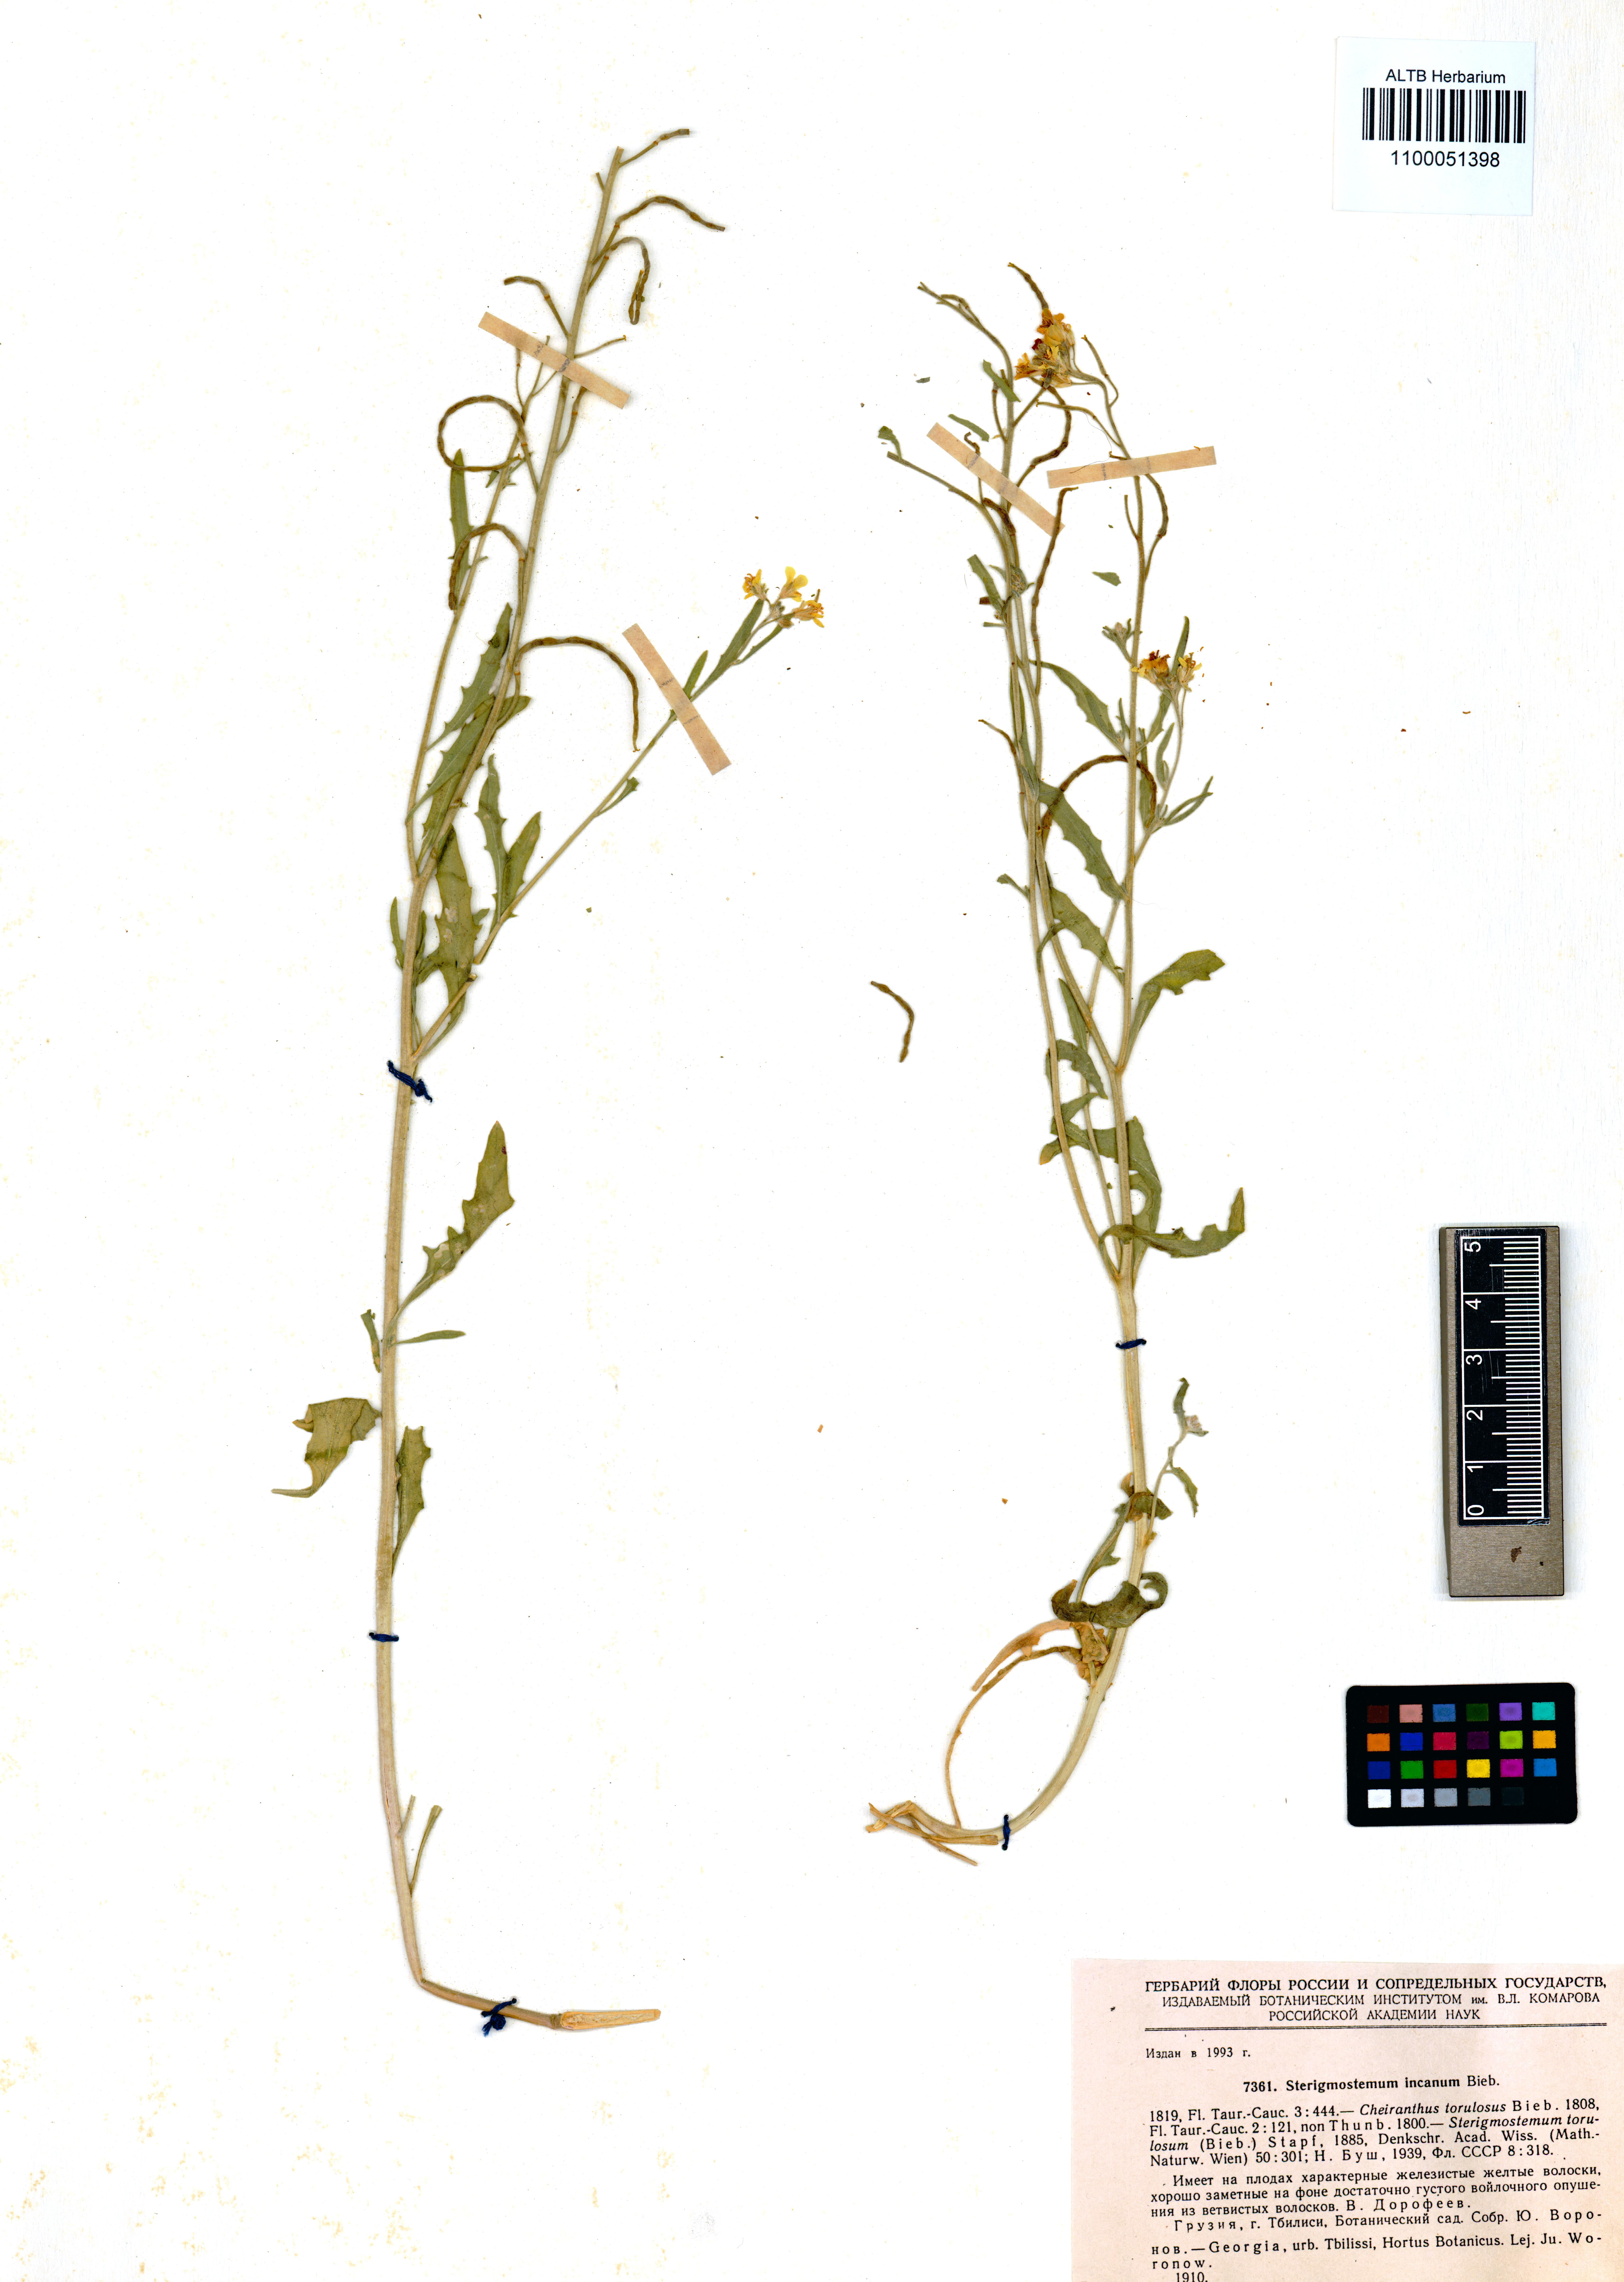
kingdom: Plantae
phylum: Tracheophyta
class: Magnoliopsida
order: Brassicales
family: Brassicaceae
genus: Sterigmostemum
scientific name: Sterigmostemum incanum
